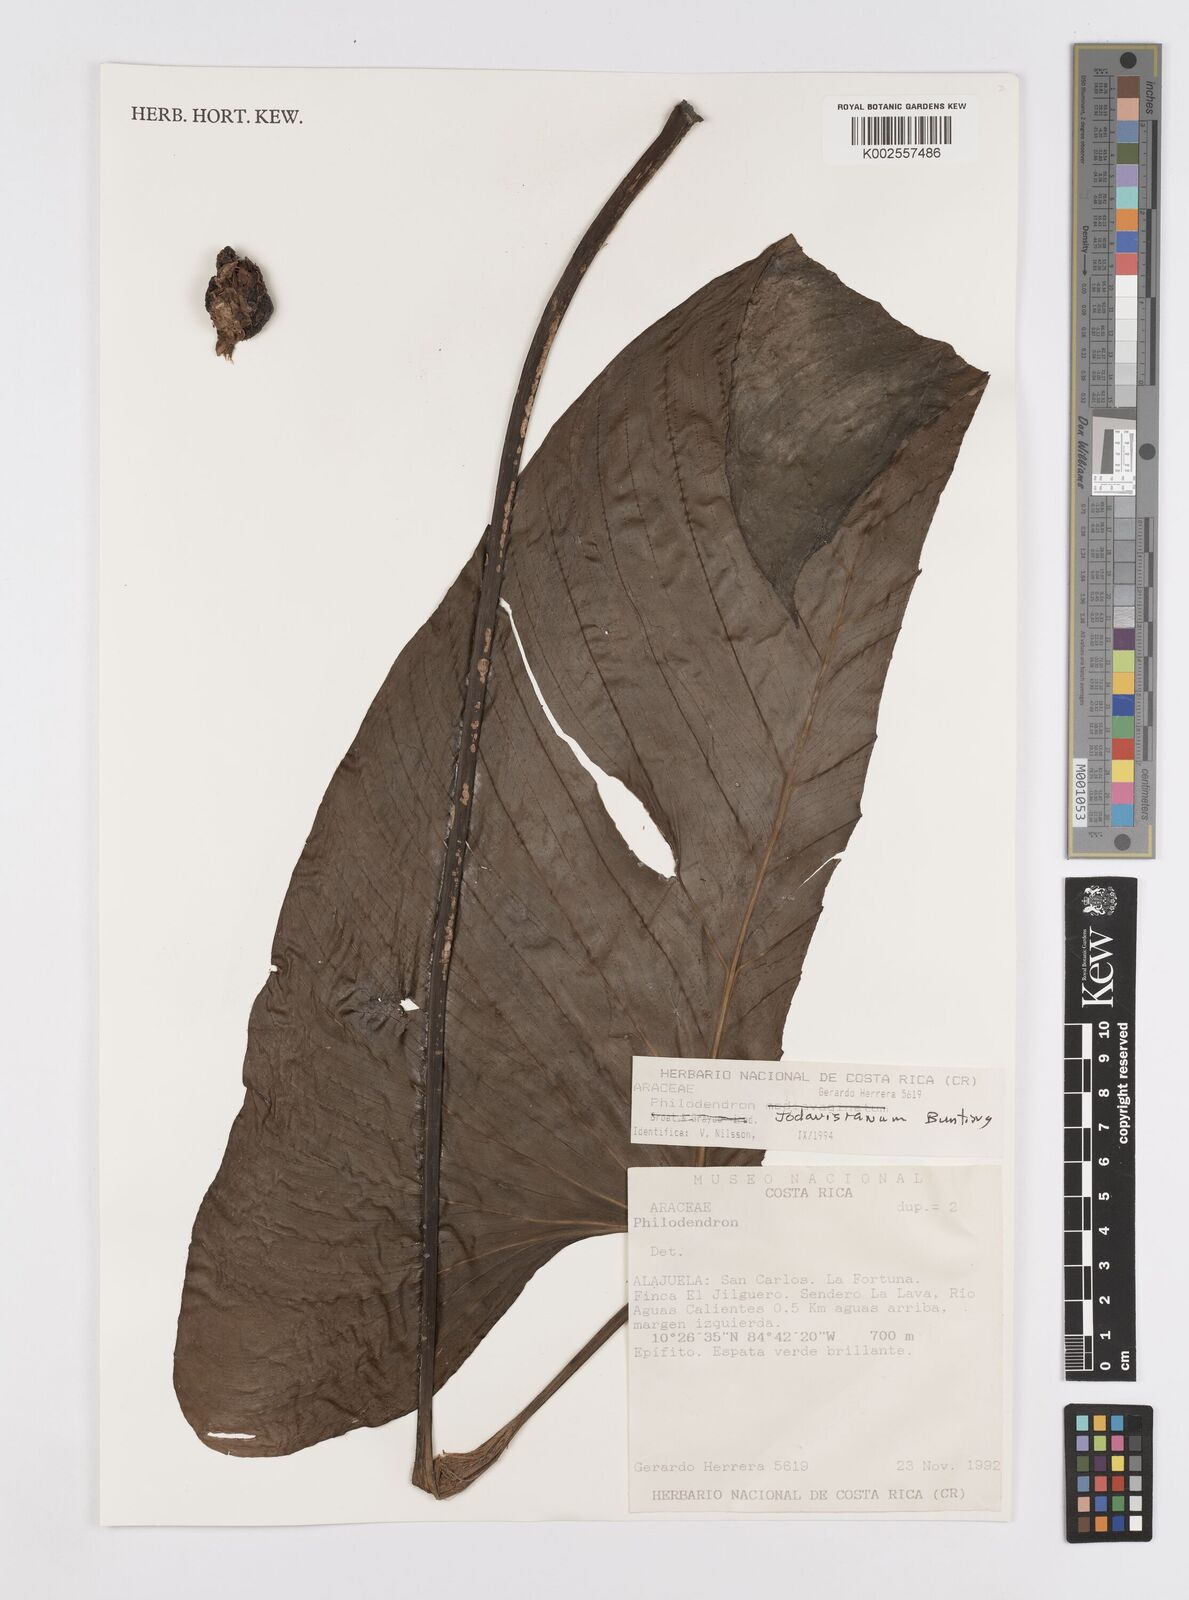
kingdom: Plantae
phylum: Tracheophyta
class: Liliopsida
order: Alismatales
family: Araceae
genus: Philodendron
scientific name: Philodendron jodavisianum
